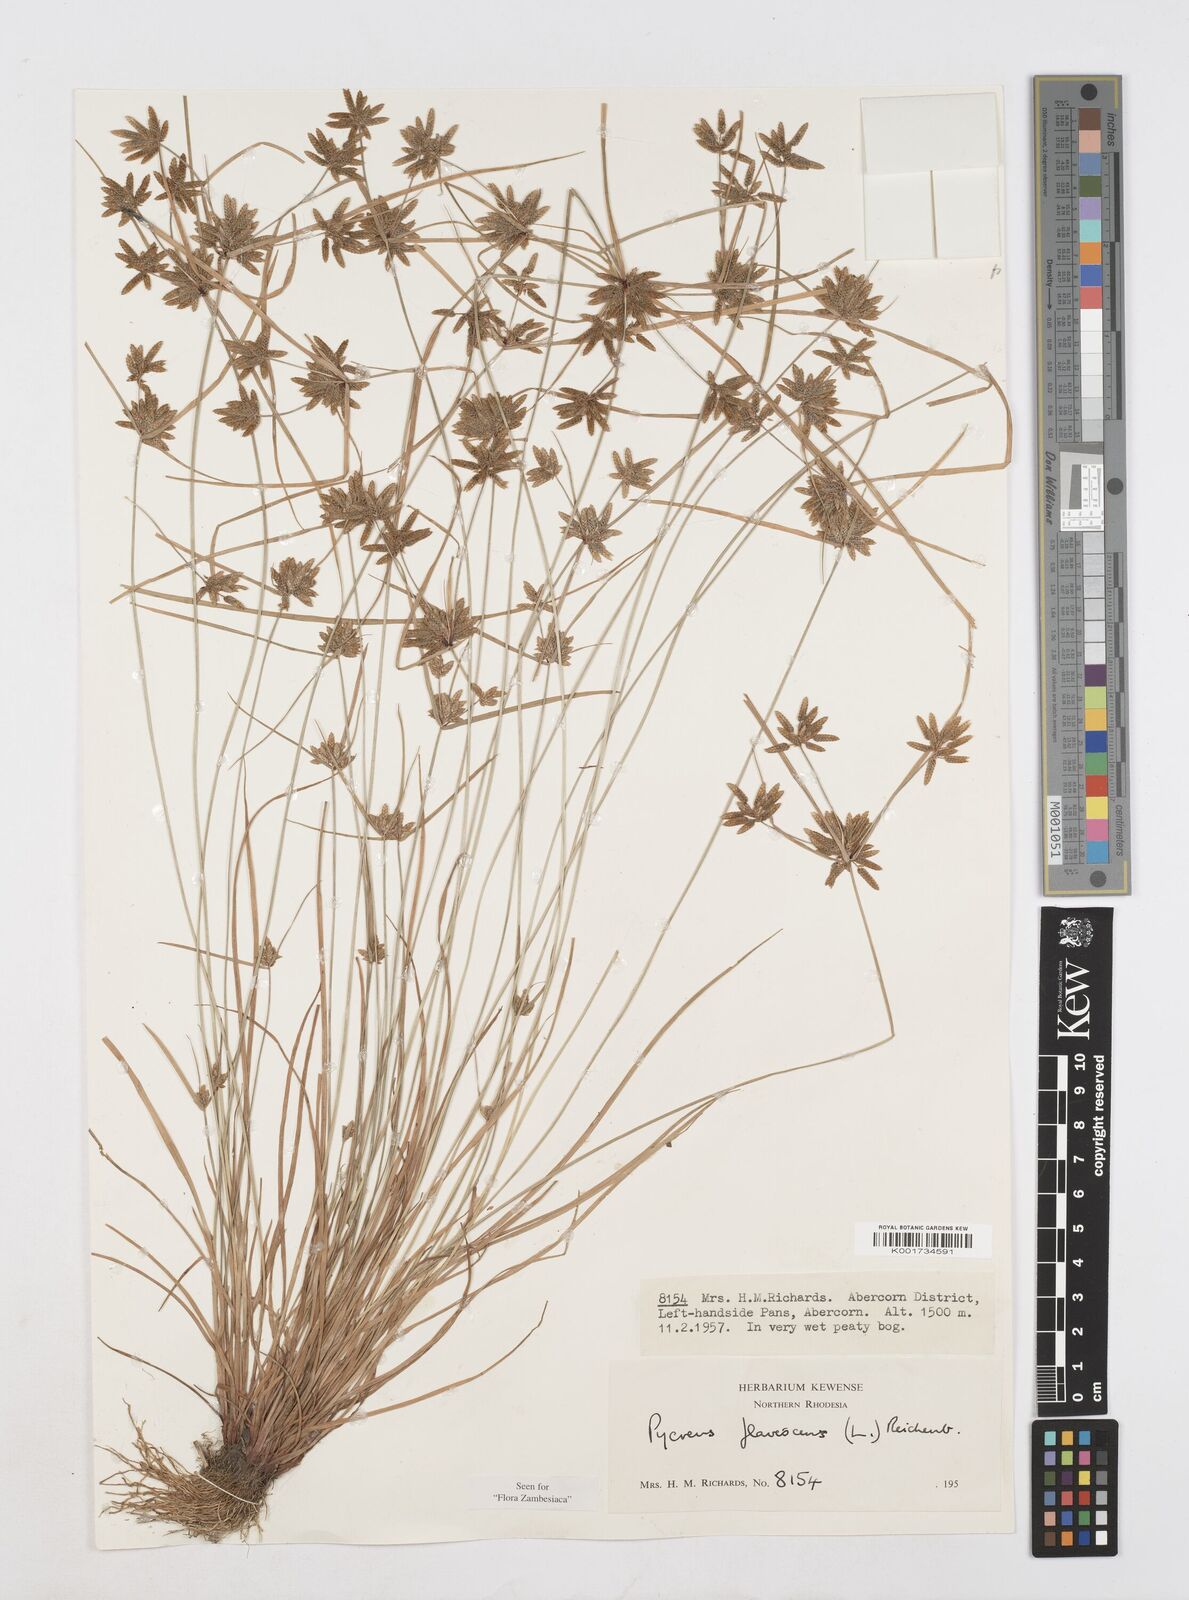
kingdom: Plantae
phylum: Tracheophyta
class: Liliopsida
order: Poales
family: Cyperaceae
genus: Cyperus
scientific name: Cyperus flavescens
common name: Yellow galingale
